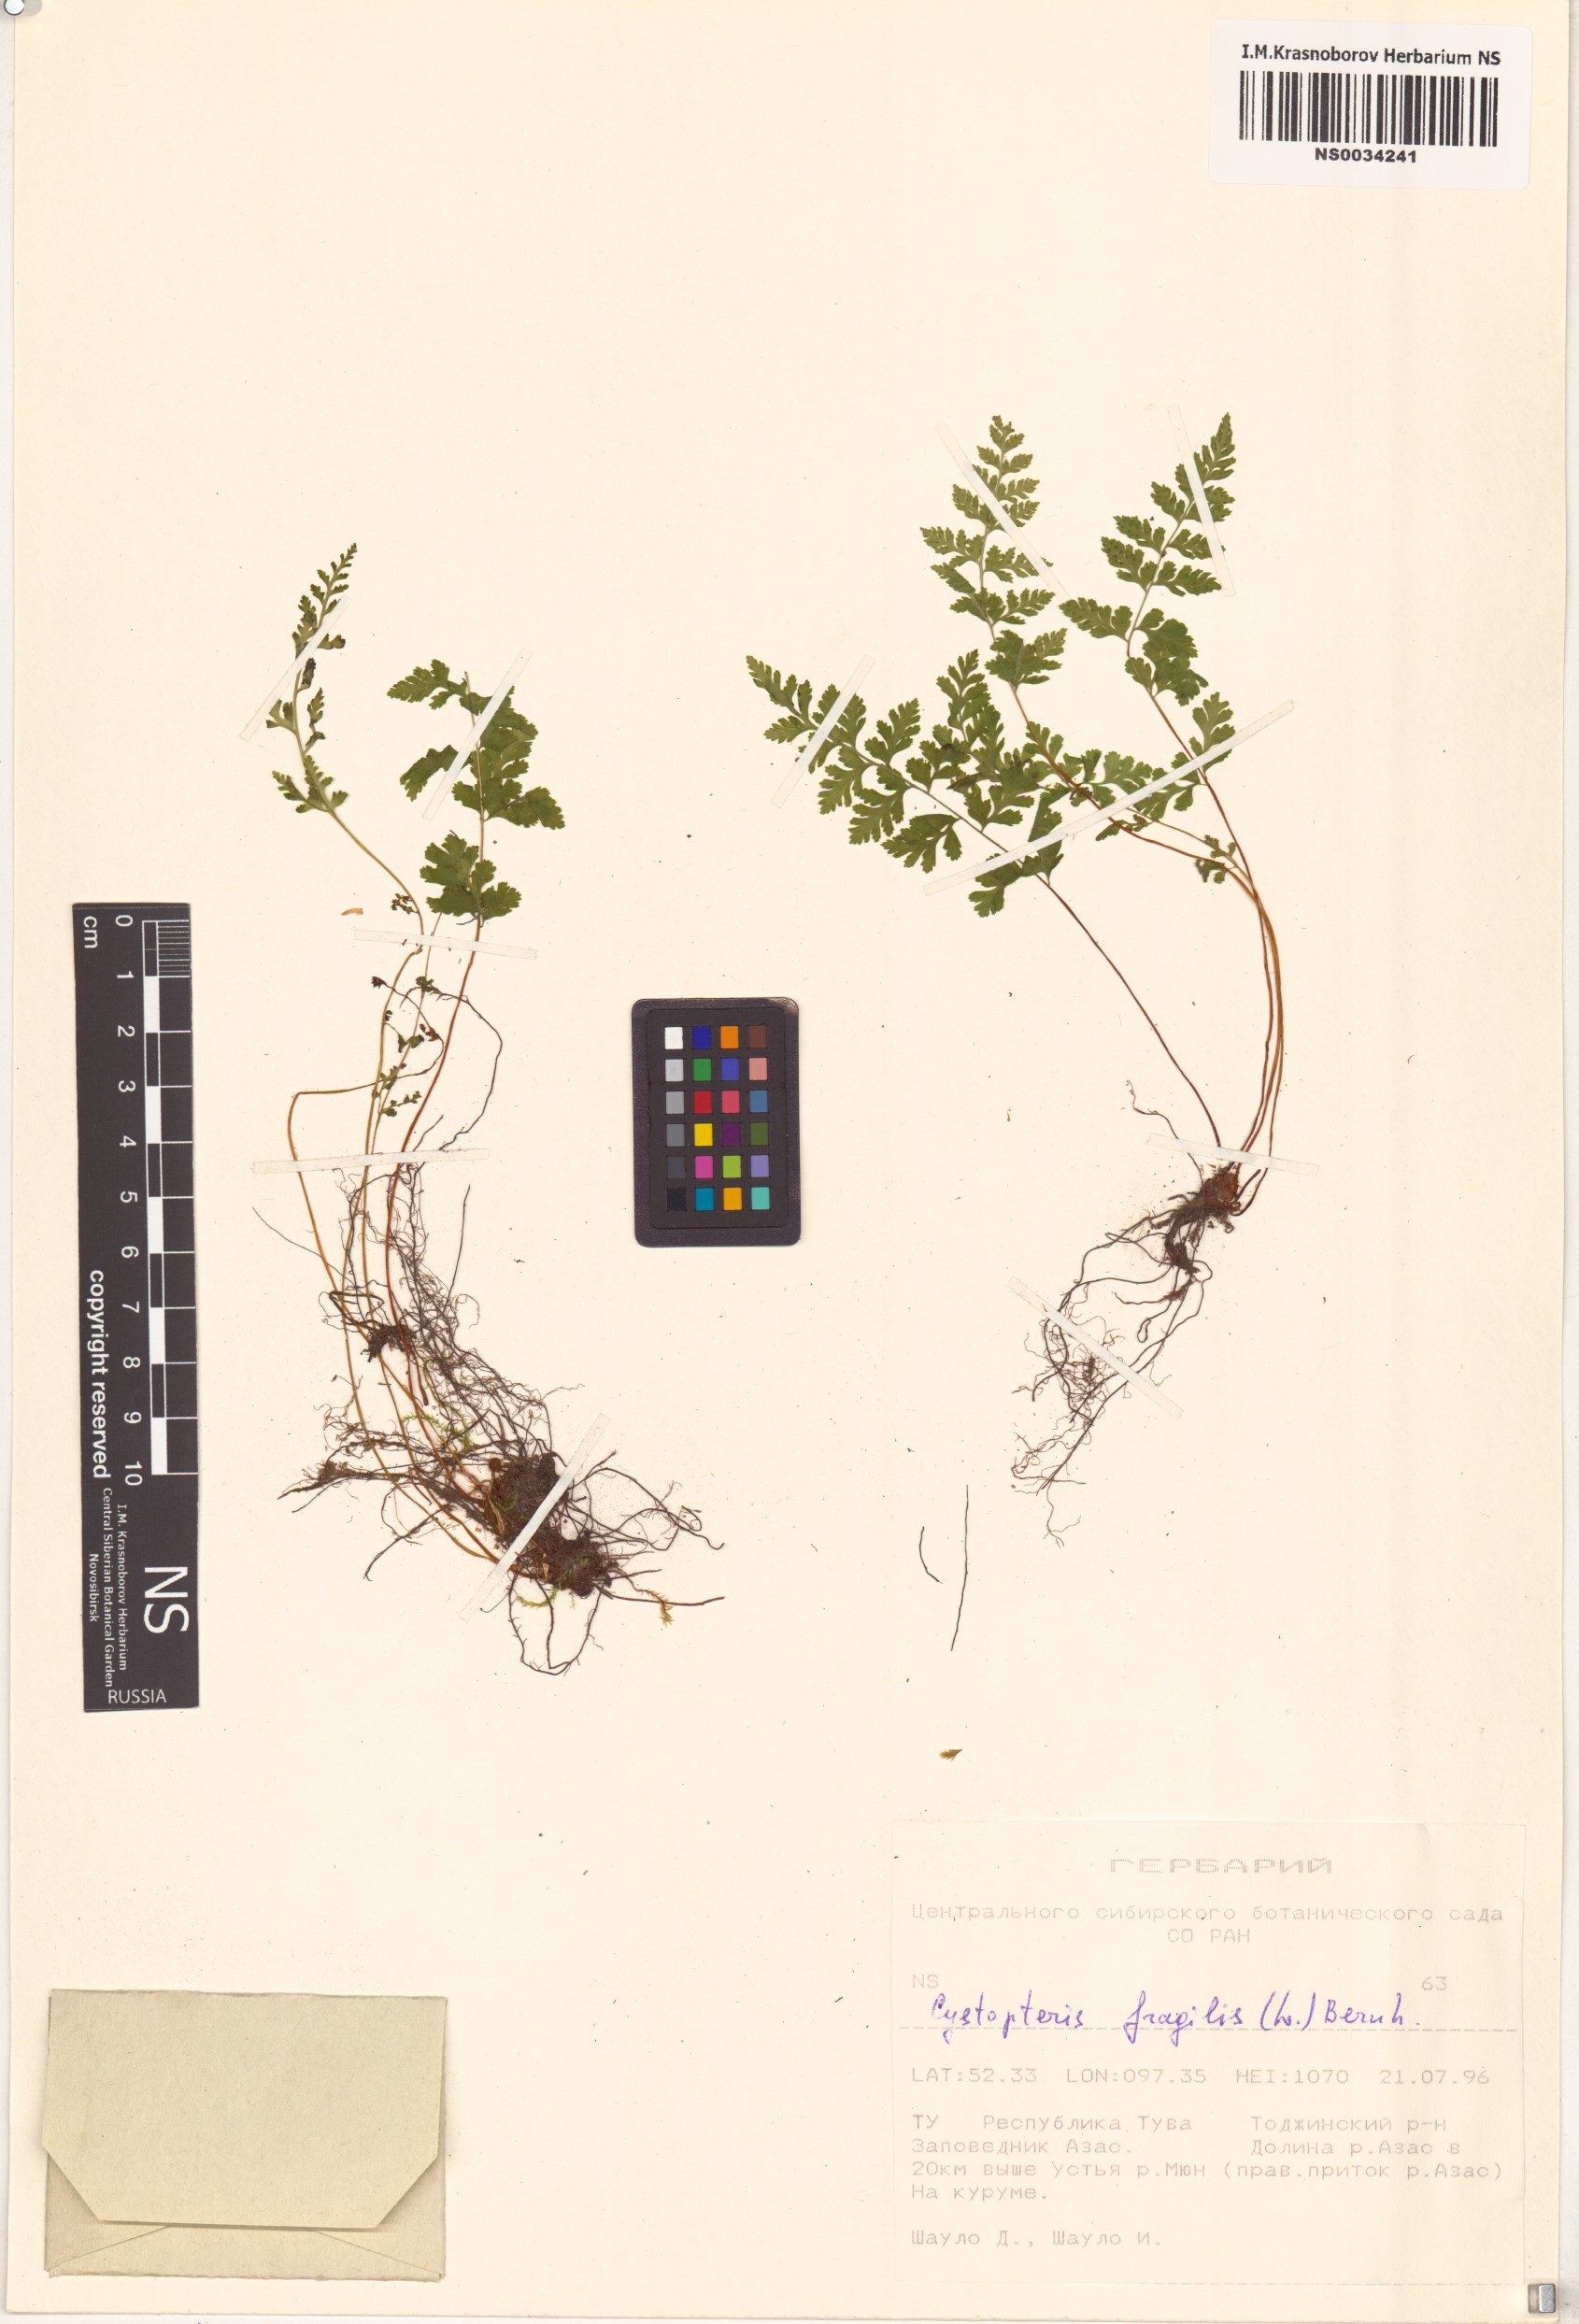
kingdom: Plantae
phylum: Tracheophyta
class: Polypodiopsida
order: Polypodiales
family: Cystopteridaceae
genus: Cystopteris
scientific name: Cystopteris fragilis
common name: Brittle bladder fern
